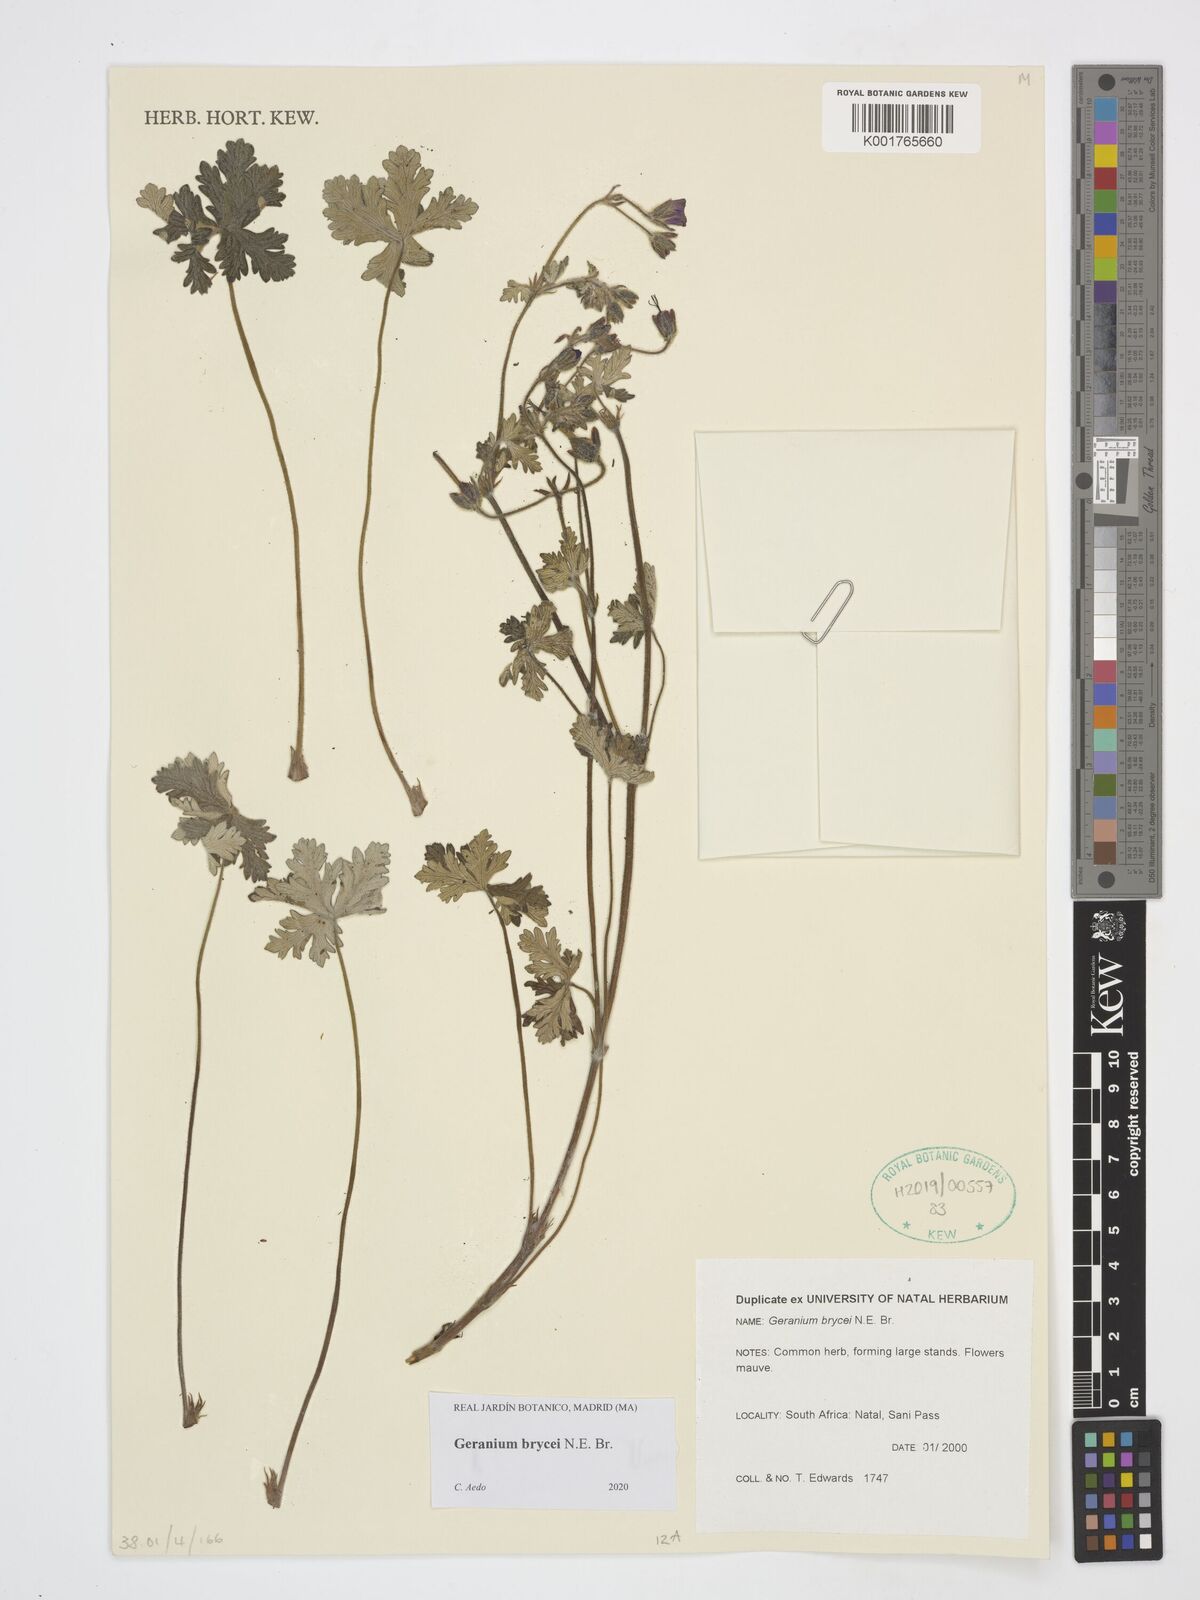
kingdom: Plantae
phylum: Tracheophyta
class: Magnoliopsida
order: Geraniales
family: Geraniaceae
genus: Geranium
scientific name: Geranium brycei
